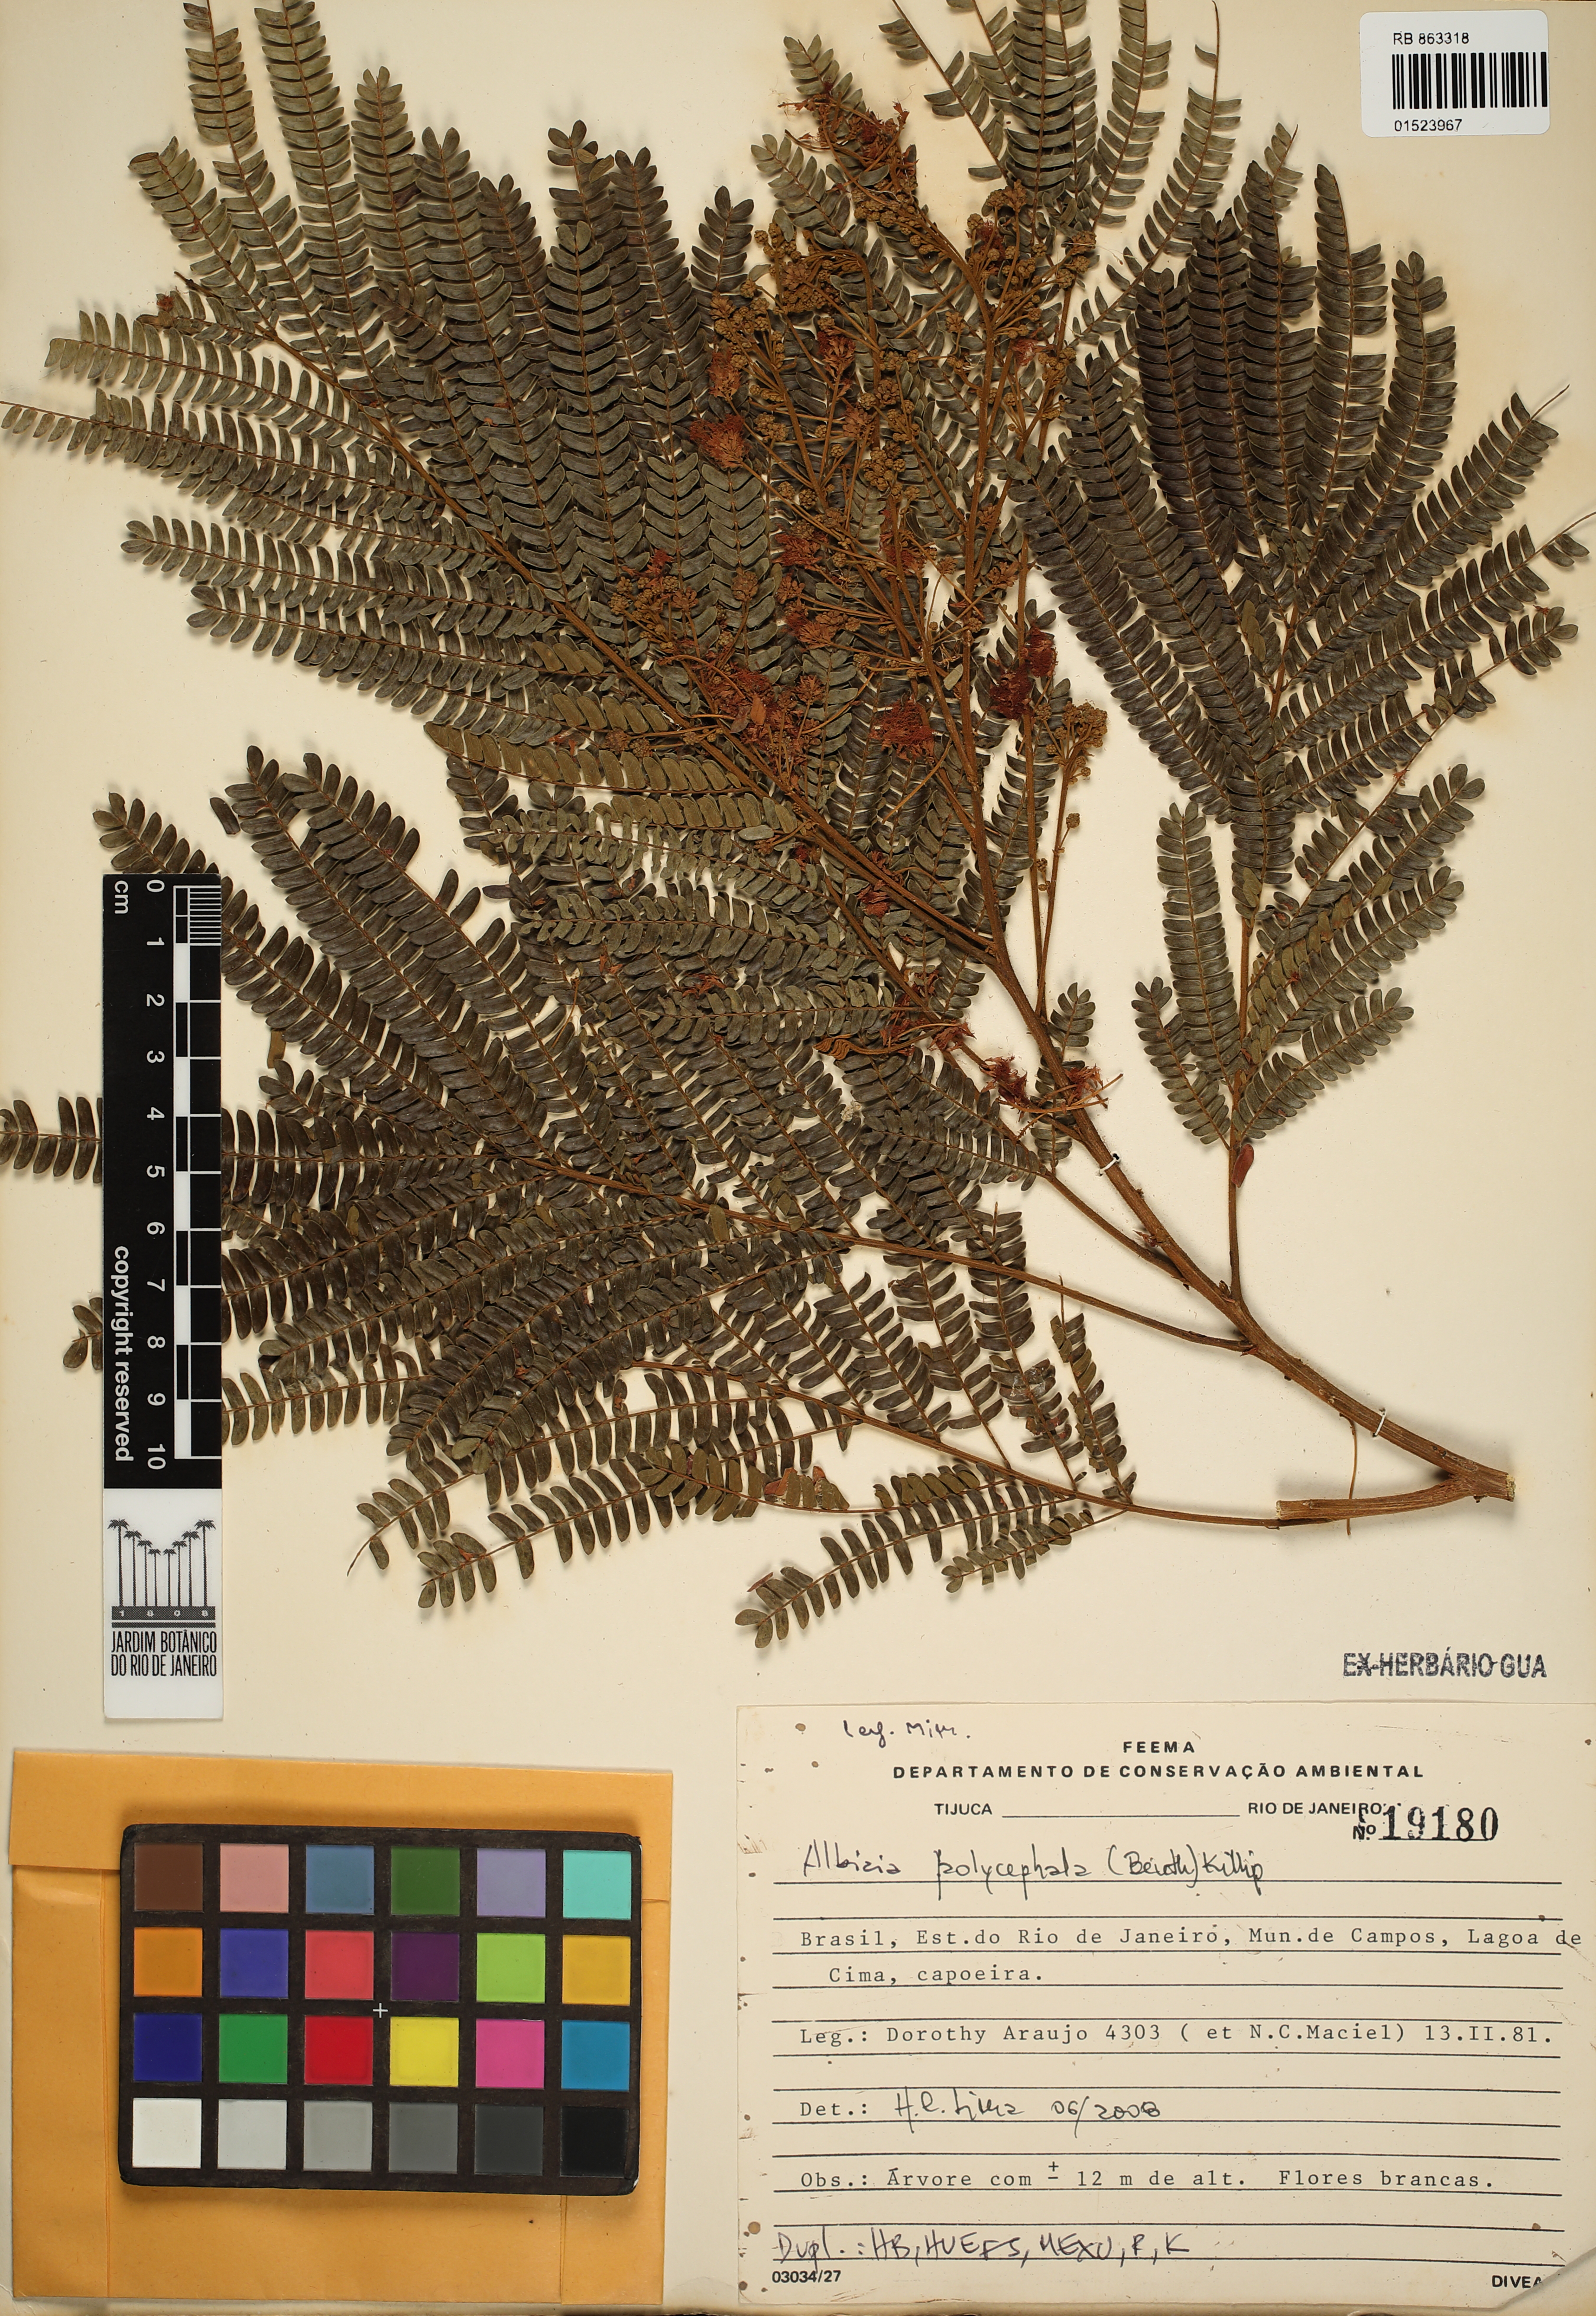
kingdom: Plantae
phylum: Tracheophyta
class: Magnoliopsida
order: Fabales
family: Fabaceae
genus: Albizia
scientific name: Albizia polycephala
